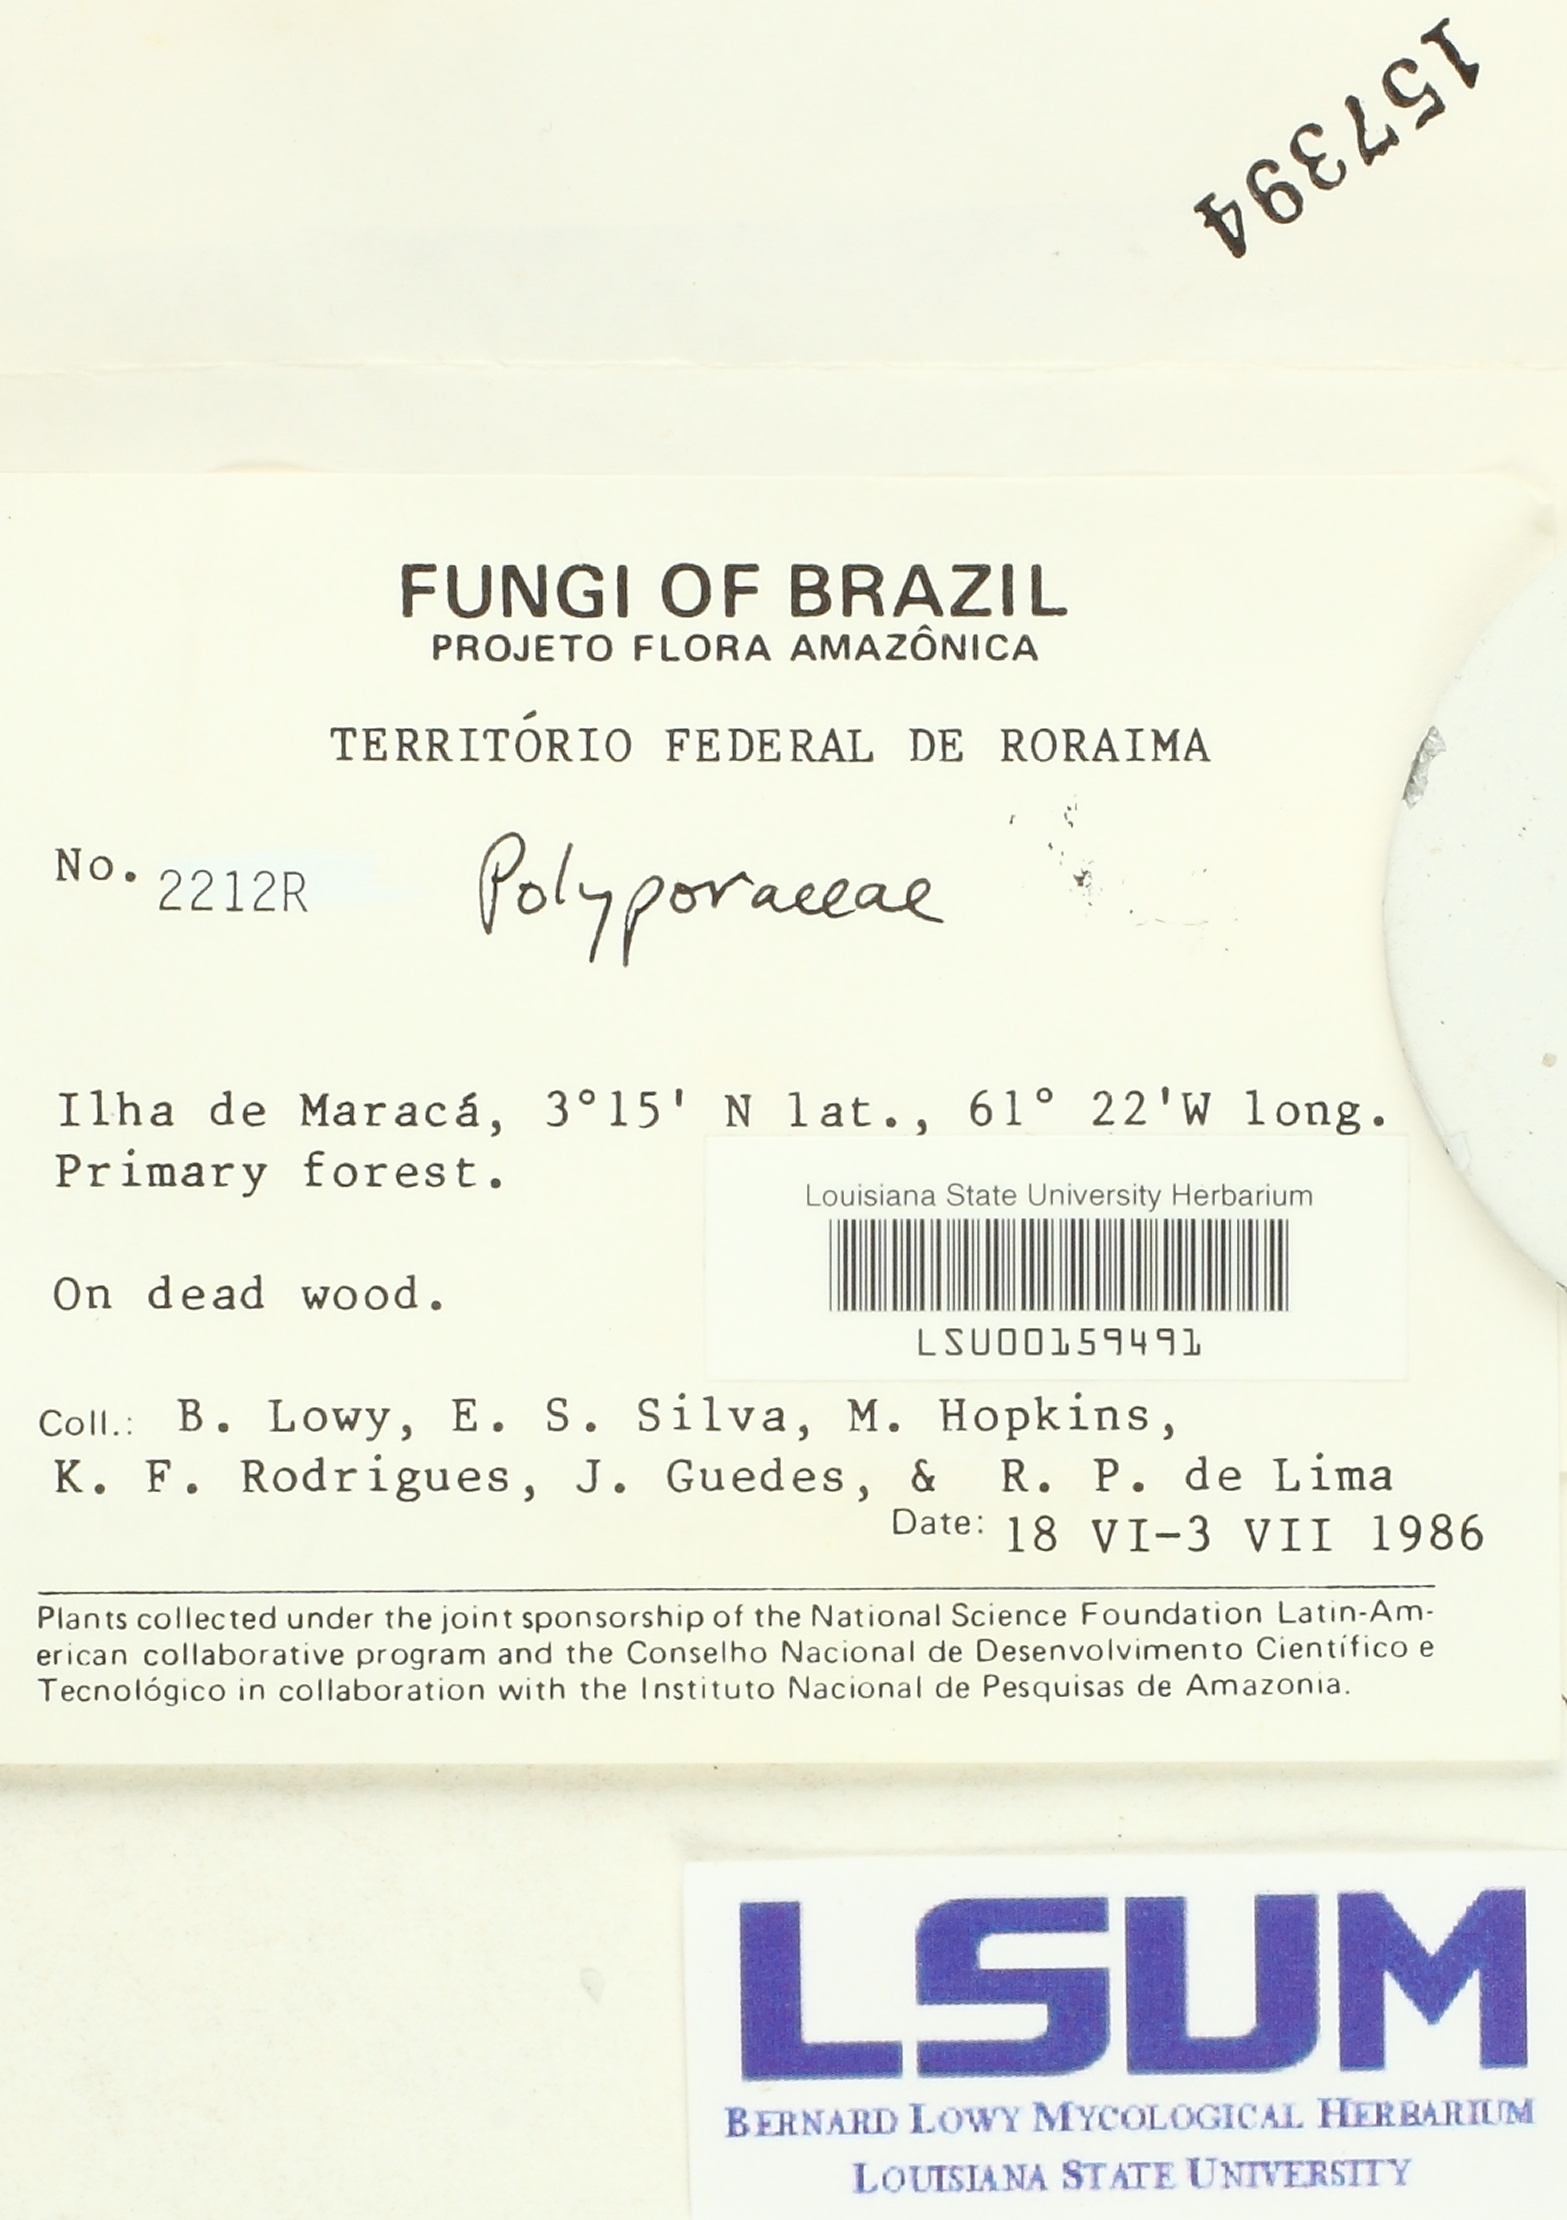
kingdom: Fungi
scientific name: Fungi
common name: Fungi
